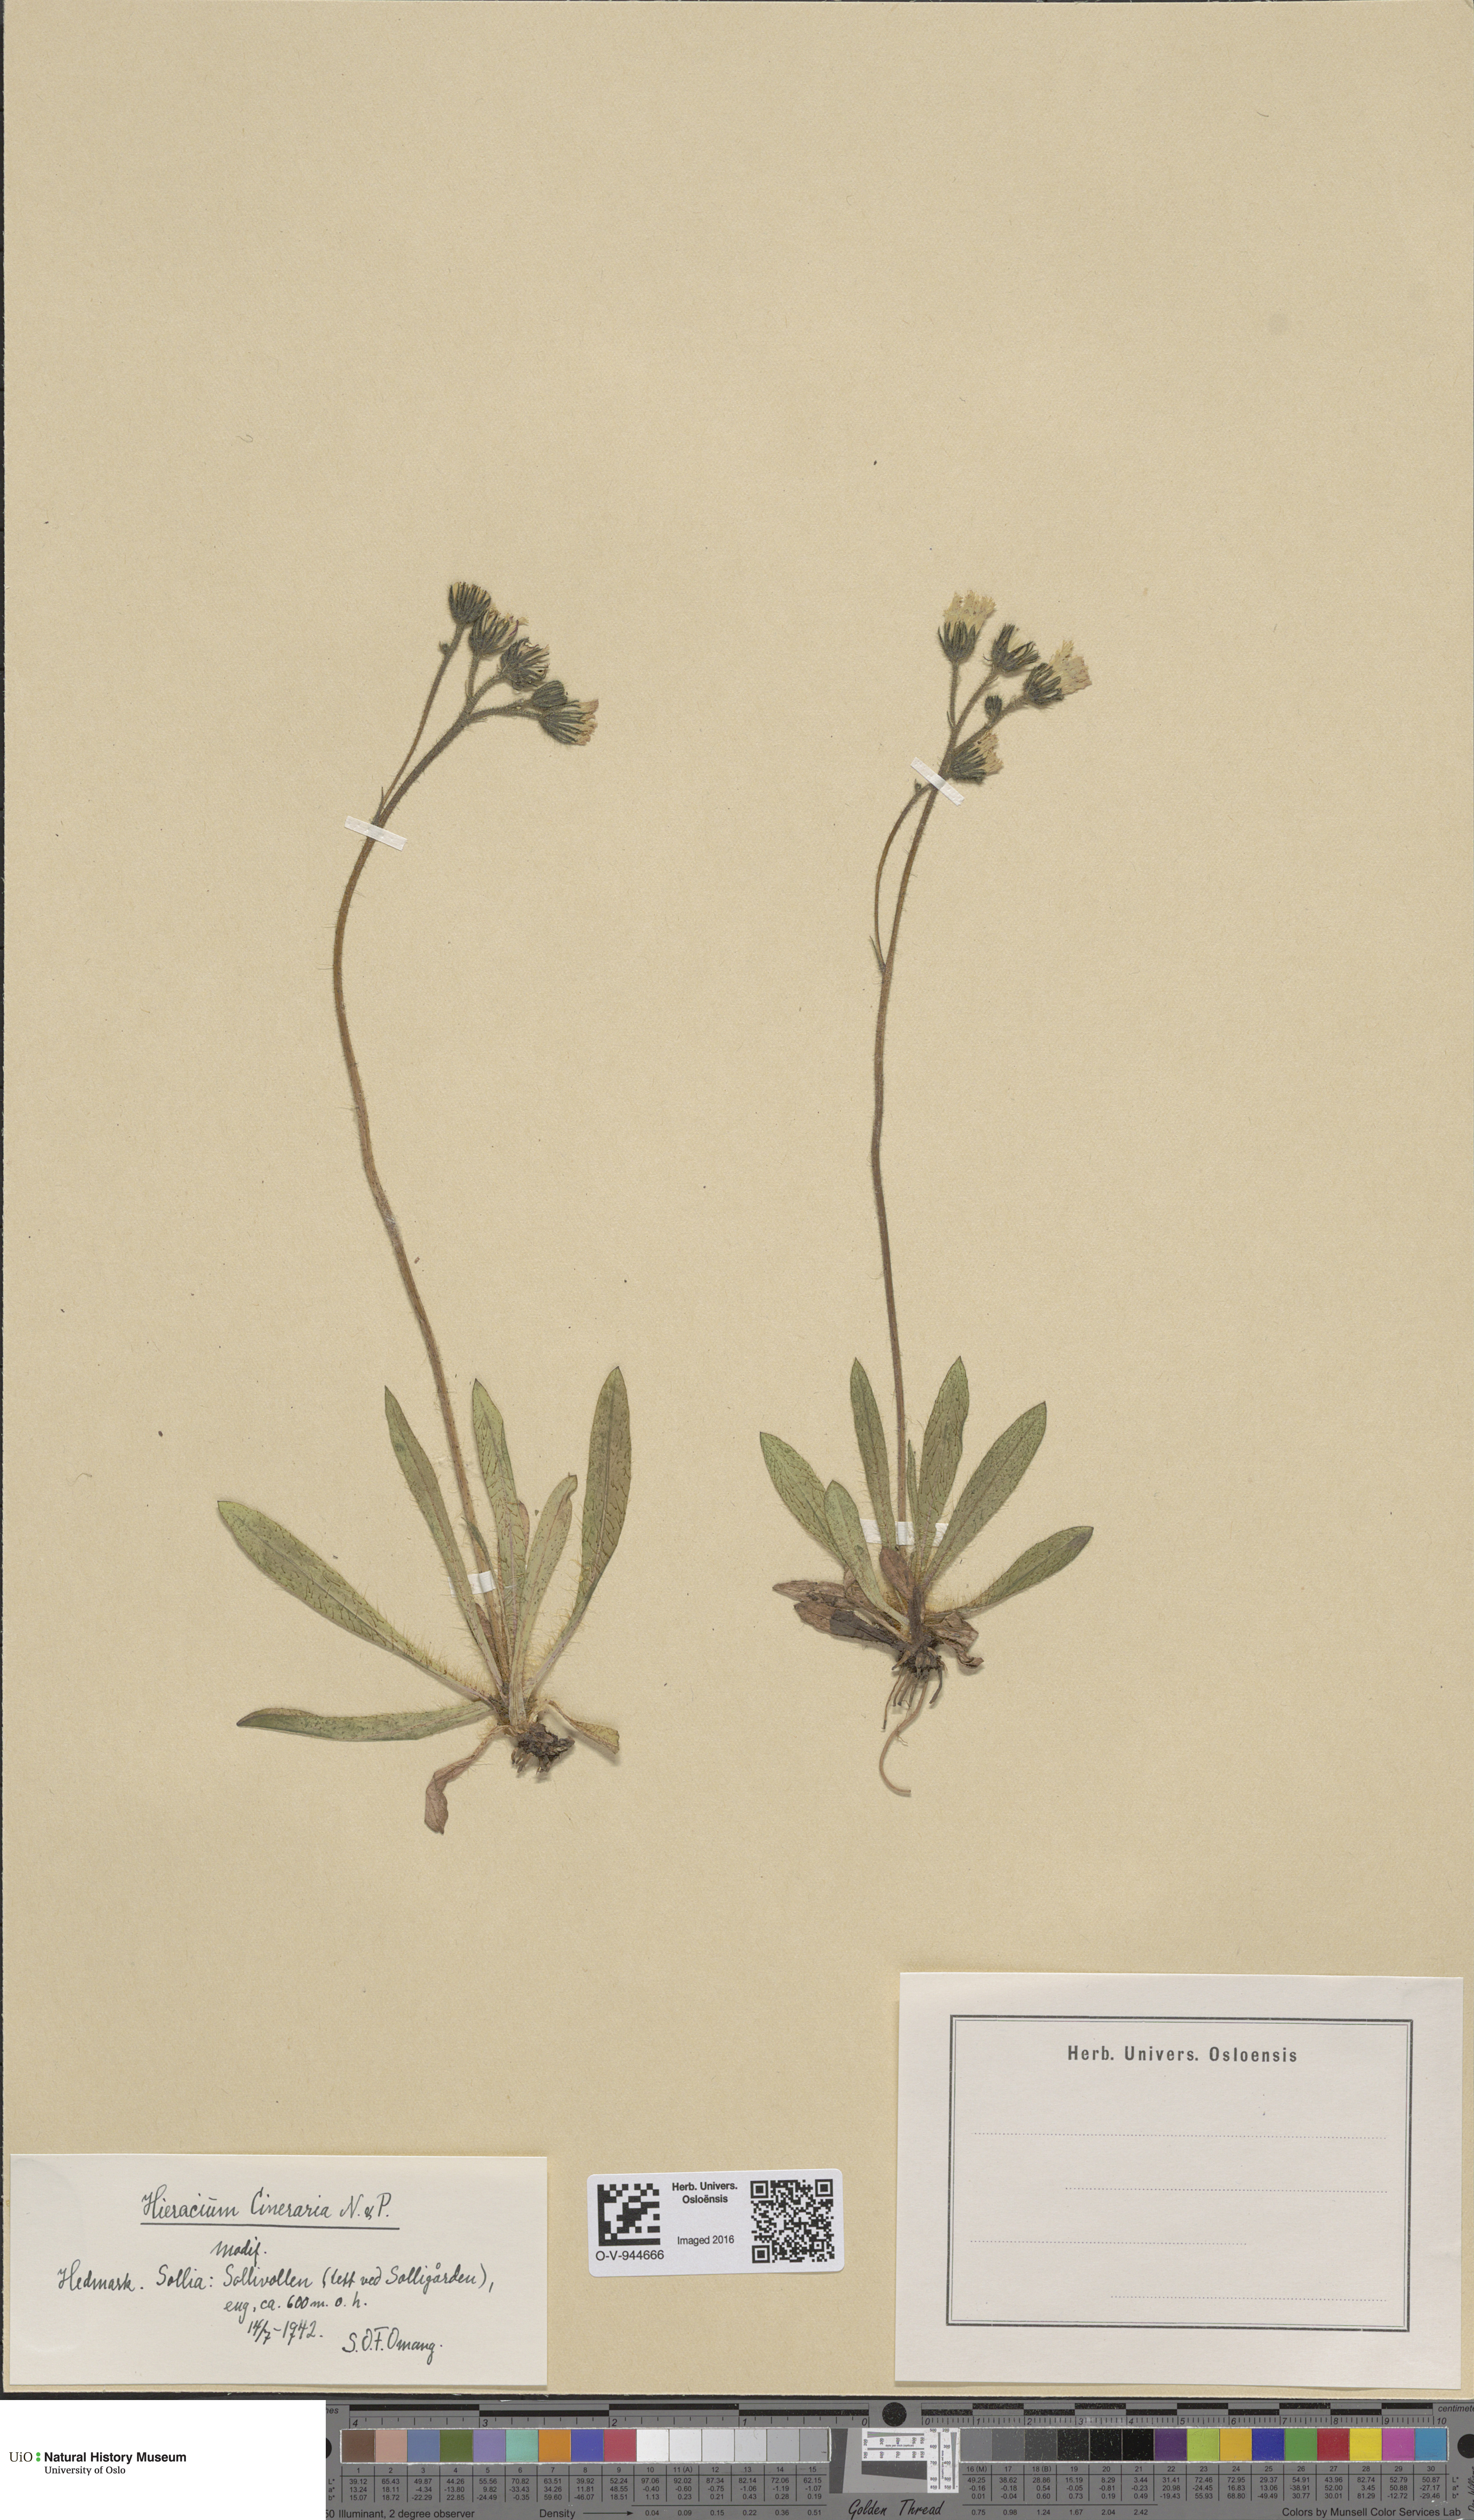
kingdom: Plantae
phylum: Tracheophyta
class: Magnoliopsida
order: Asterales
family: Asteraceae
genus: Pilosella
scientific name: Pilosella moechiadia
